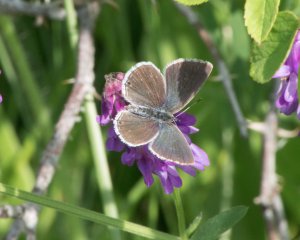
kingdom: Animalia
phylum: Arthropoda
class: Insecta
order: Lepidoptera
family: Lycaenidae
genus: Elkalyce
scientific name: Elkalyce amyntula
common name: Western Tailed-Blue
